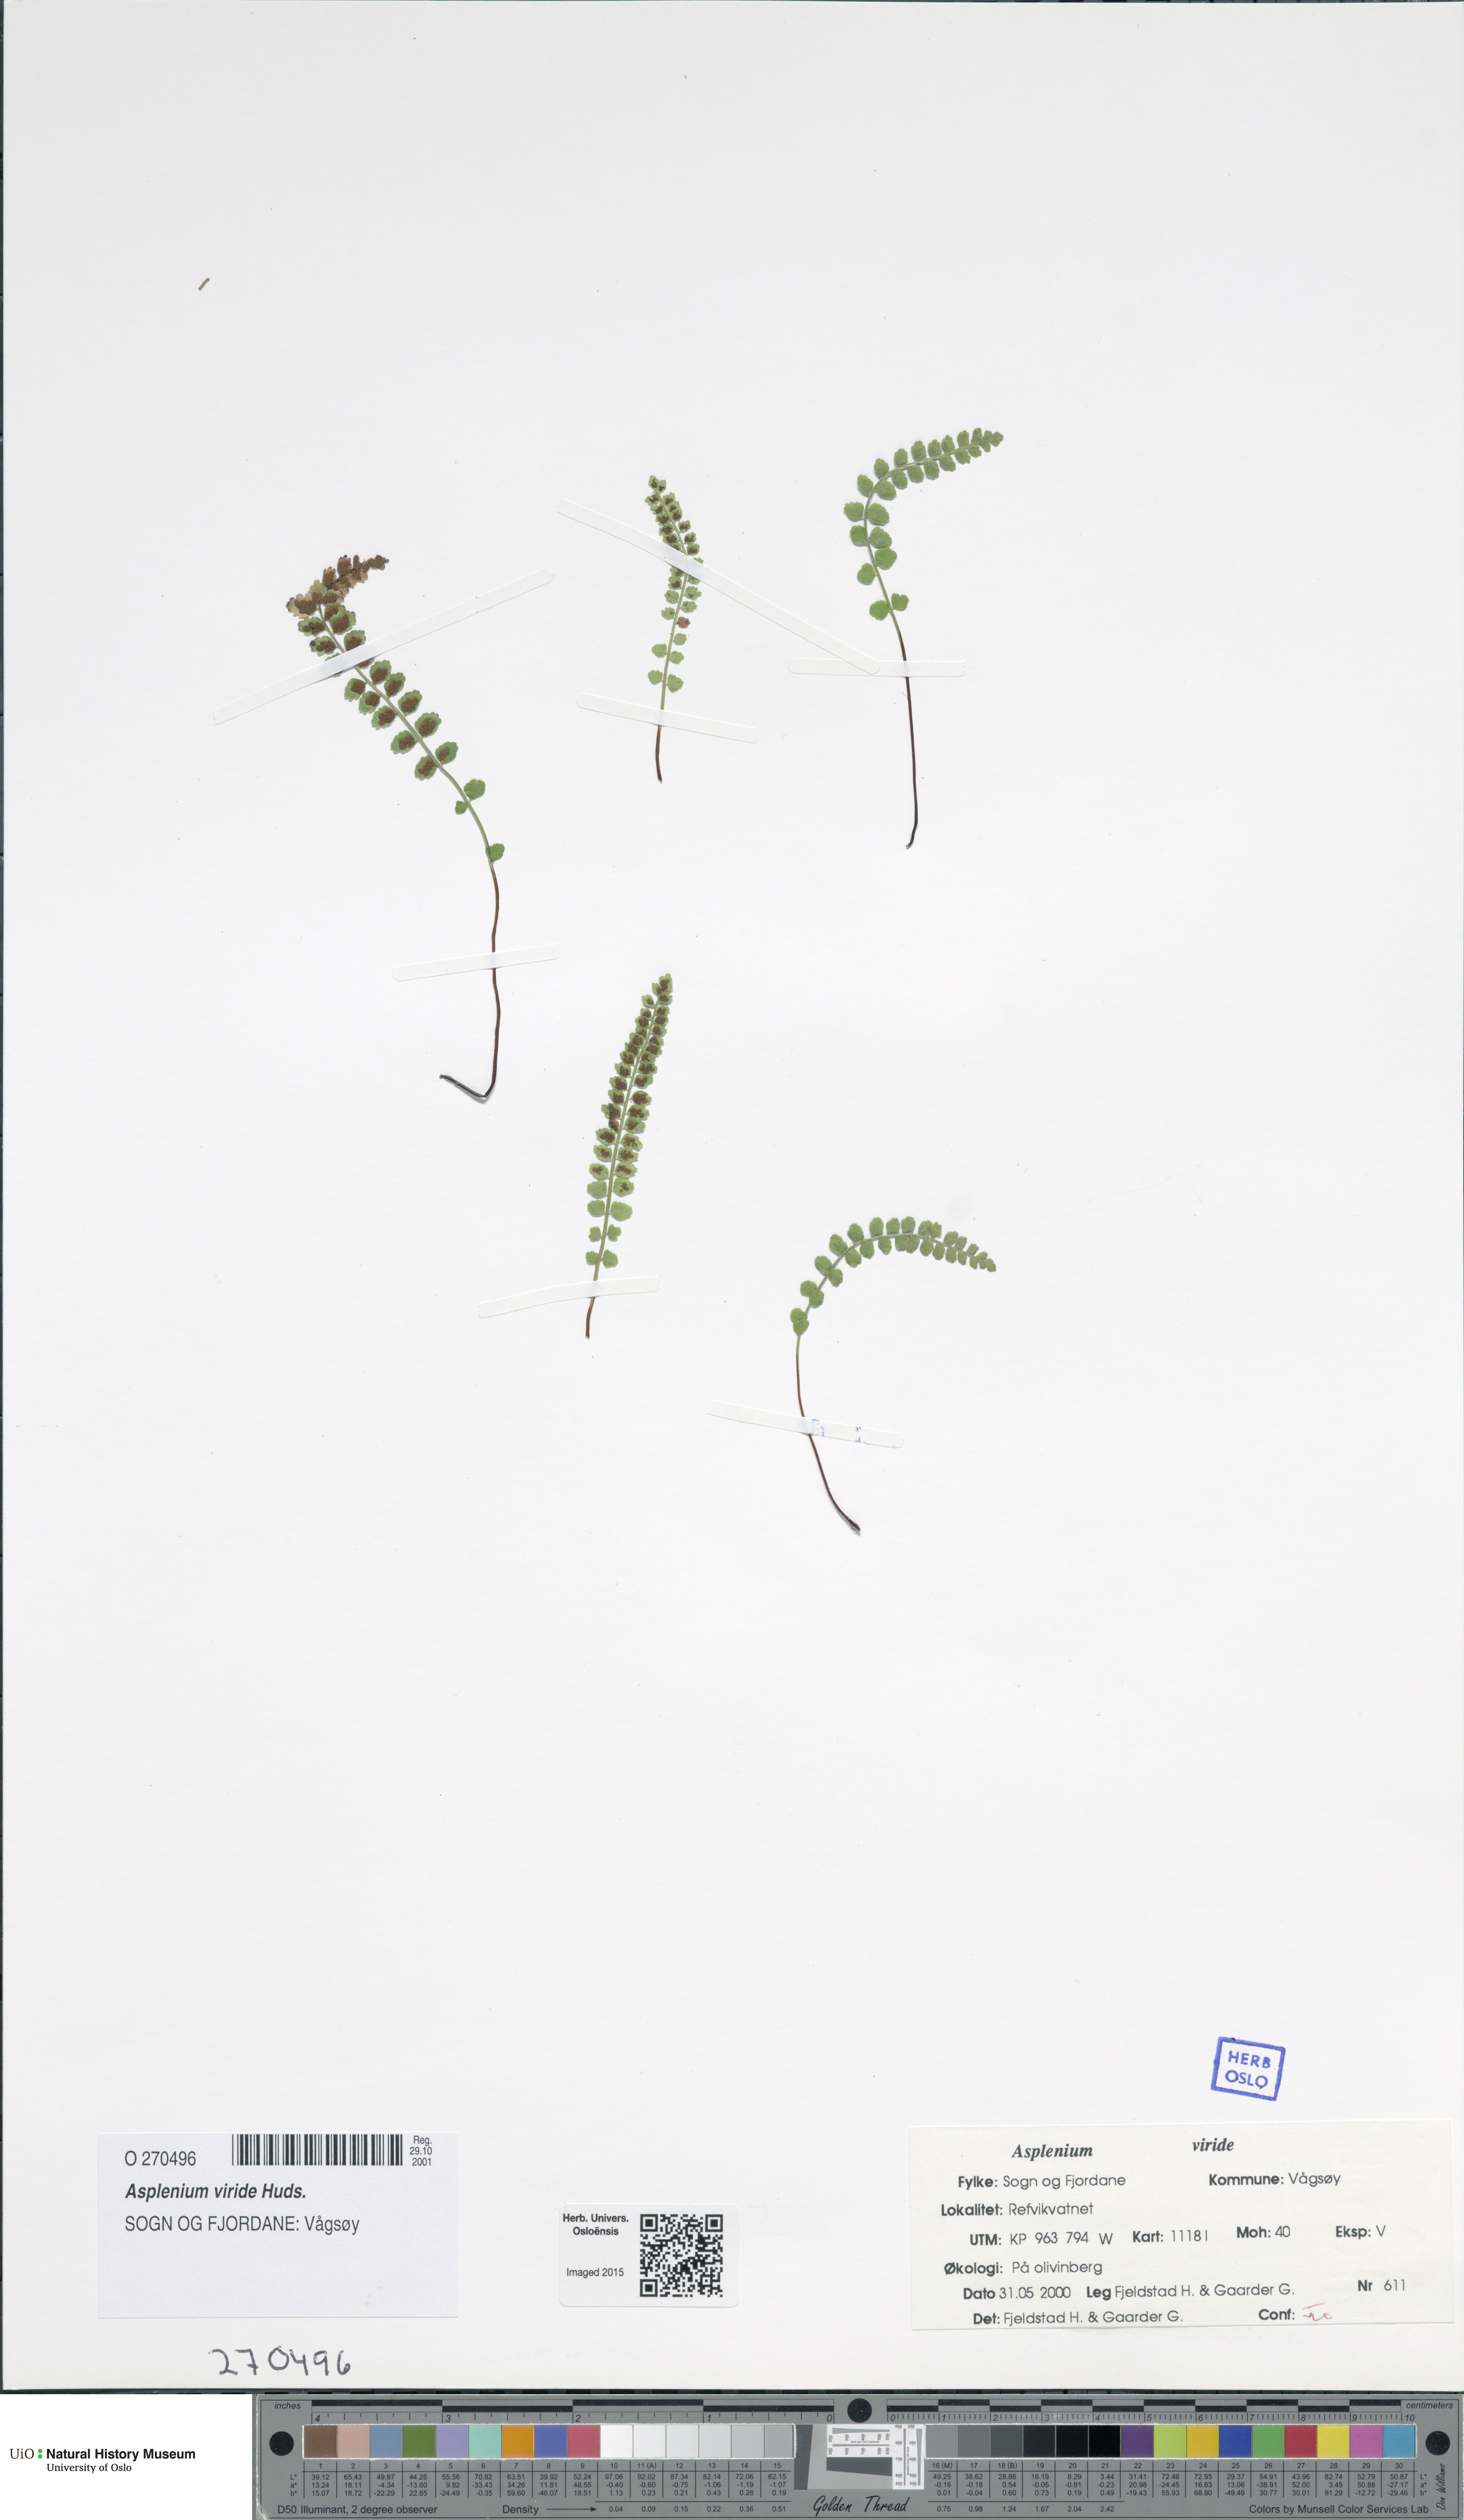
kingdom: Plantae
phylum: Tracheophyta
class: Polypodiopsida
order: Polypodiales
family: Aspleniaceae
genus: Asplenium
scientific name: Asplenium viride
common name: Green spleenwort
